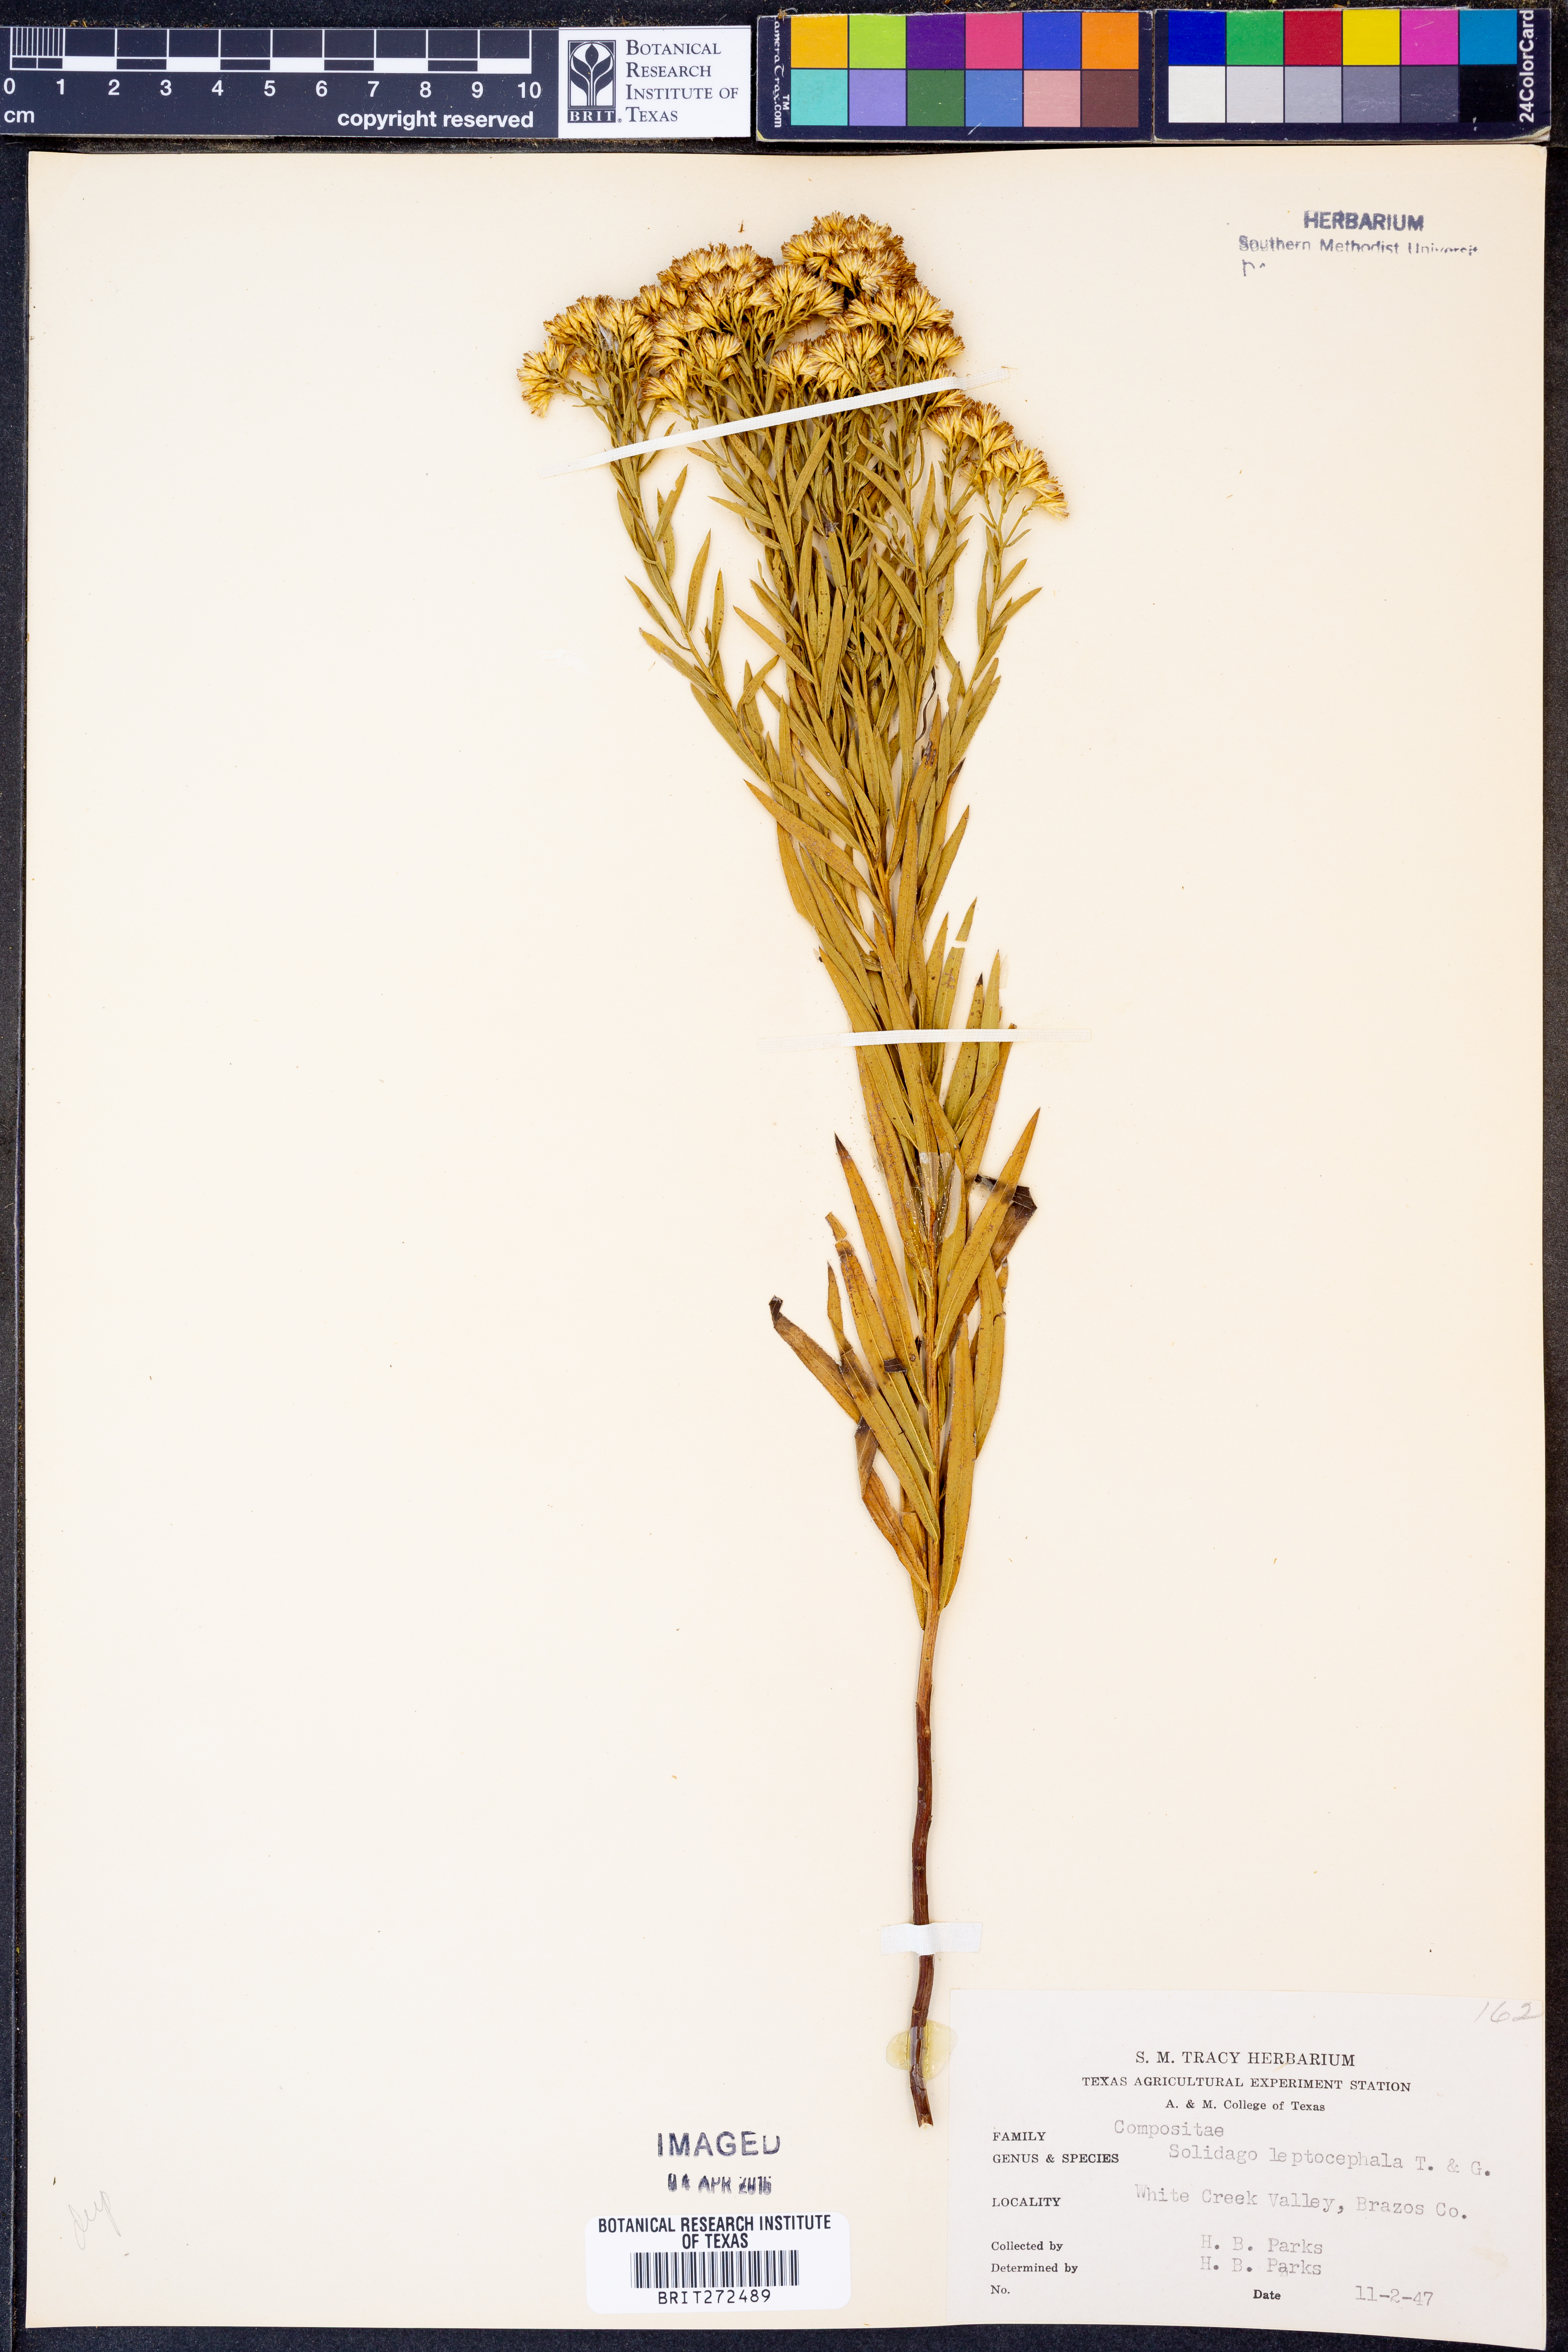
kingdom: Plantae
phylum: Tracheophyta
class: Magnoliopsida
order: Asterales
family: Asteraceae
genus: Euthamia
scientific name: Euthamia leptocephala
